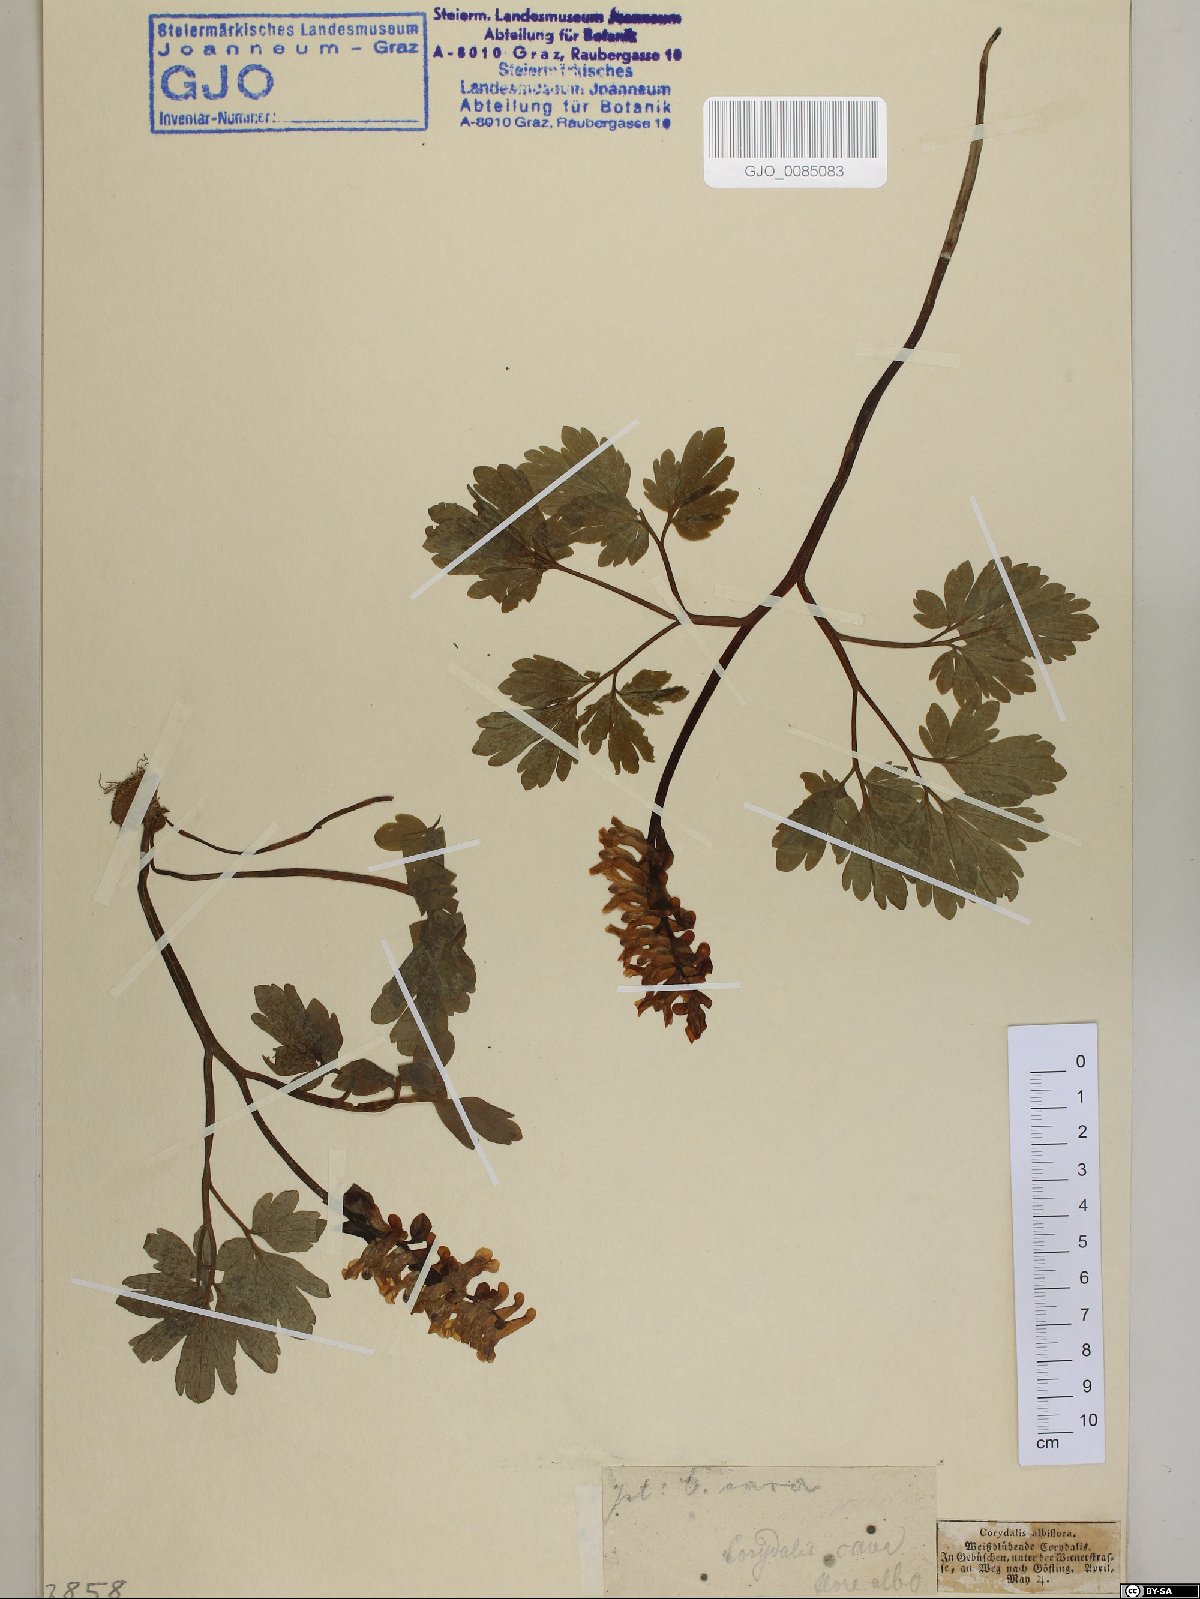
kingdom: Plantae
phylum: Tracheophyta
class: Magnoliopsida
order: Ranunculales
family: Papaveraceae
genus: Corydalis
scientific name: Corydalis cava
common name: Hollowroot
